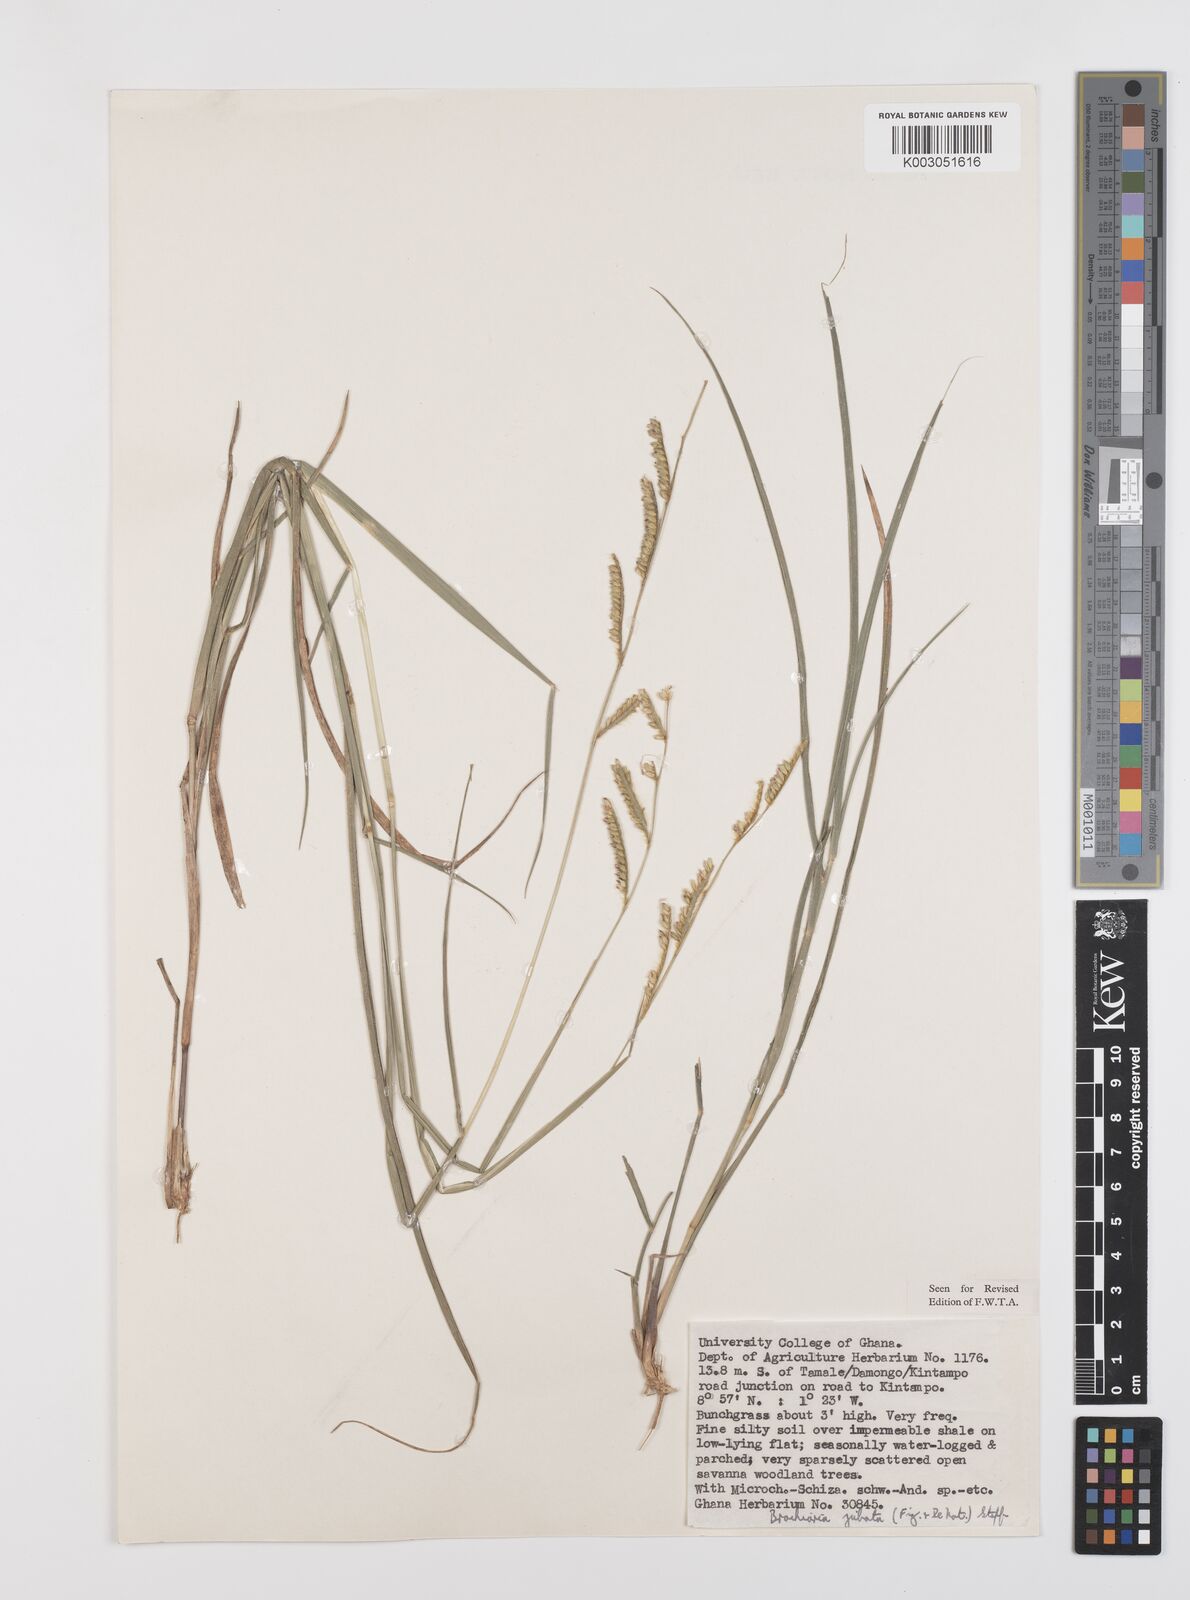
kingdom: Plantae
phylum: Tracheophyta
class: Liliopsida
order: Poales
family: Poaceae
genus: Urochloa
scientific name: Urochloa jubata
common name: Buffalograss
